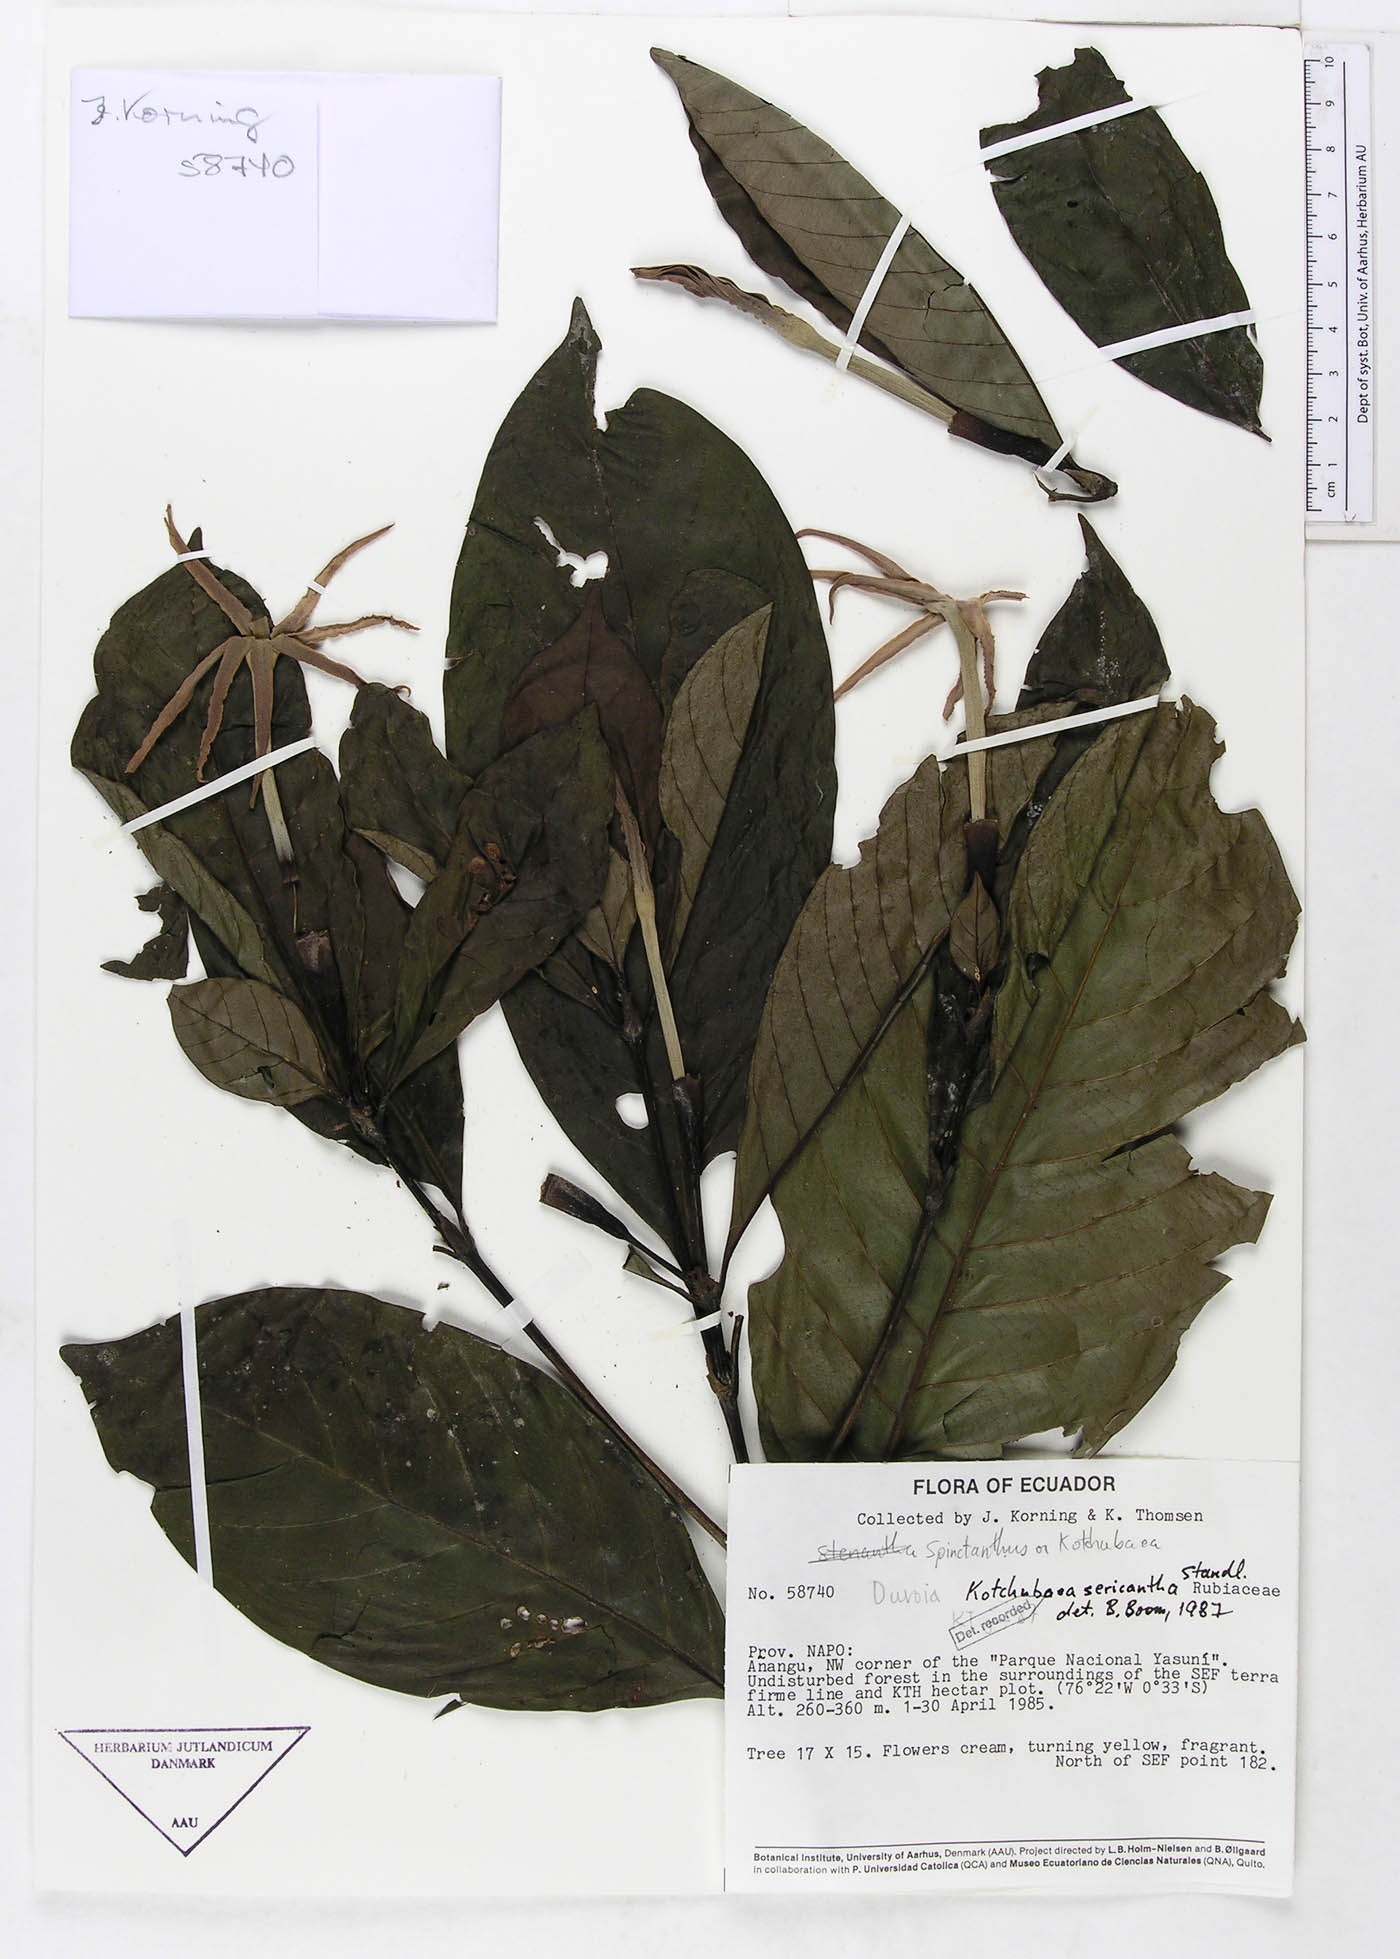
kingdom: Plantae
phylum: Tracheophyta
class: Magnoliopsida
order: Gentianales
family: Rubiaceae
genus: Kutchubaea
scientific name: Kutchubaea sericantha
